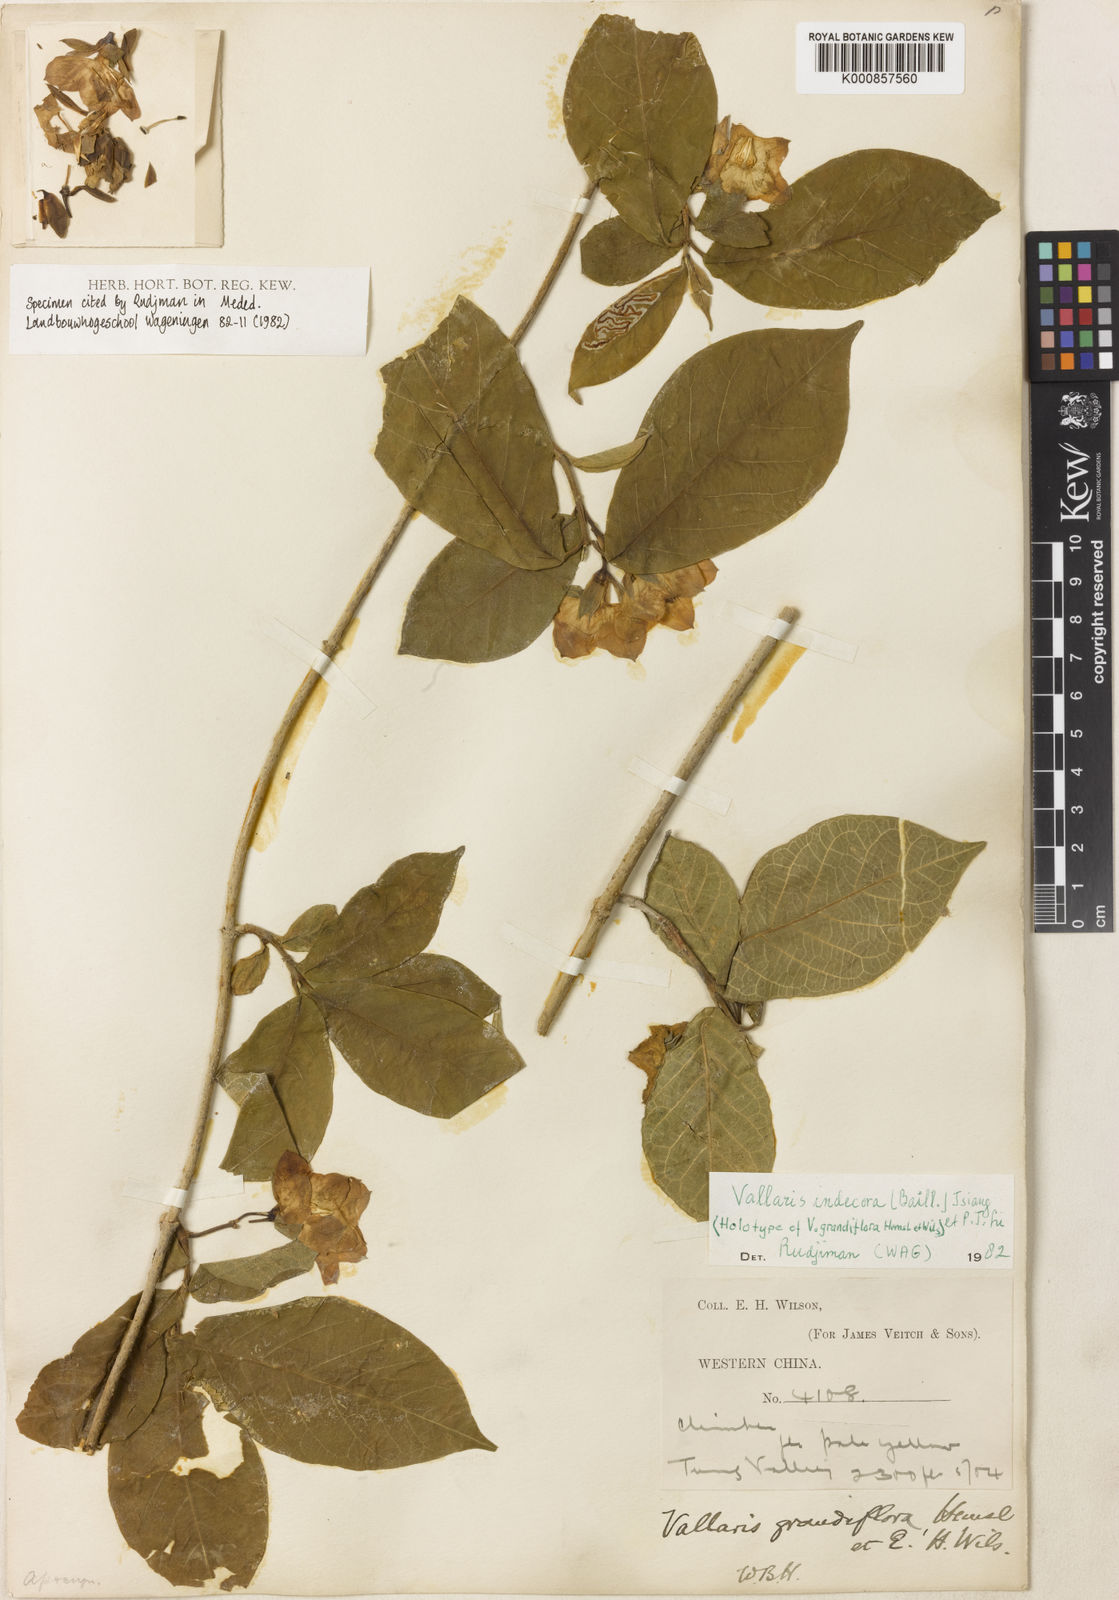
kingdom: Plantae
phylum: Tracheophyta
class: Magnoliopsida
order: Gentianales
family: Apocynaceae
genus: Vallaris
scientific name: Vallaris indecora
